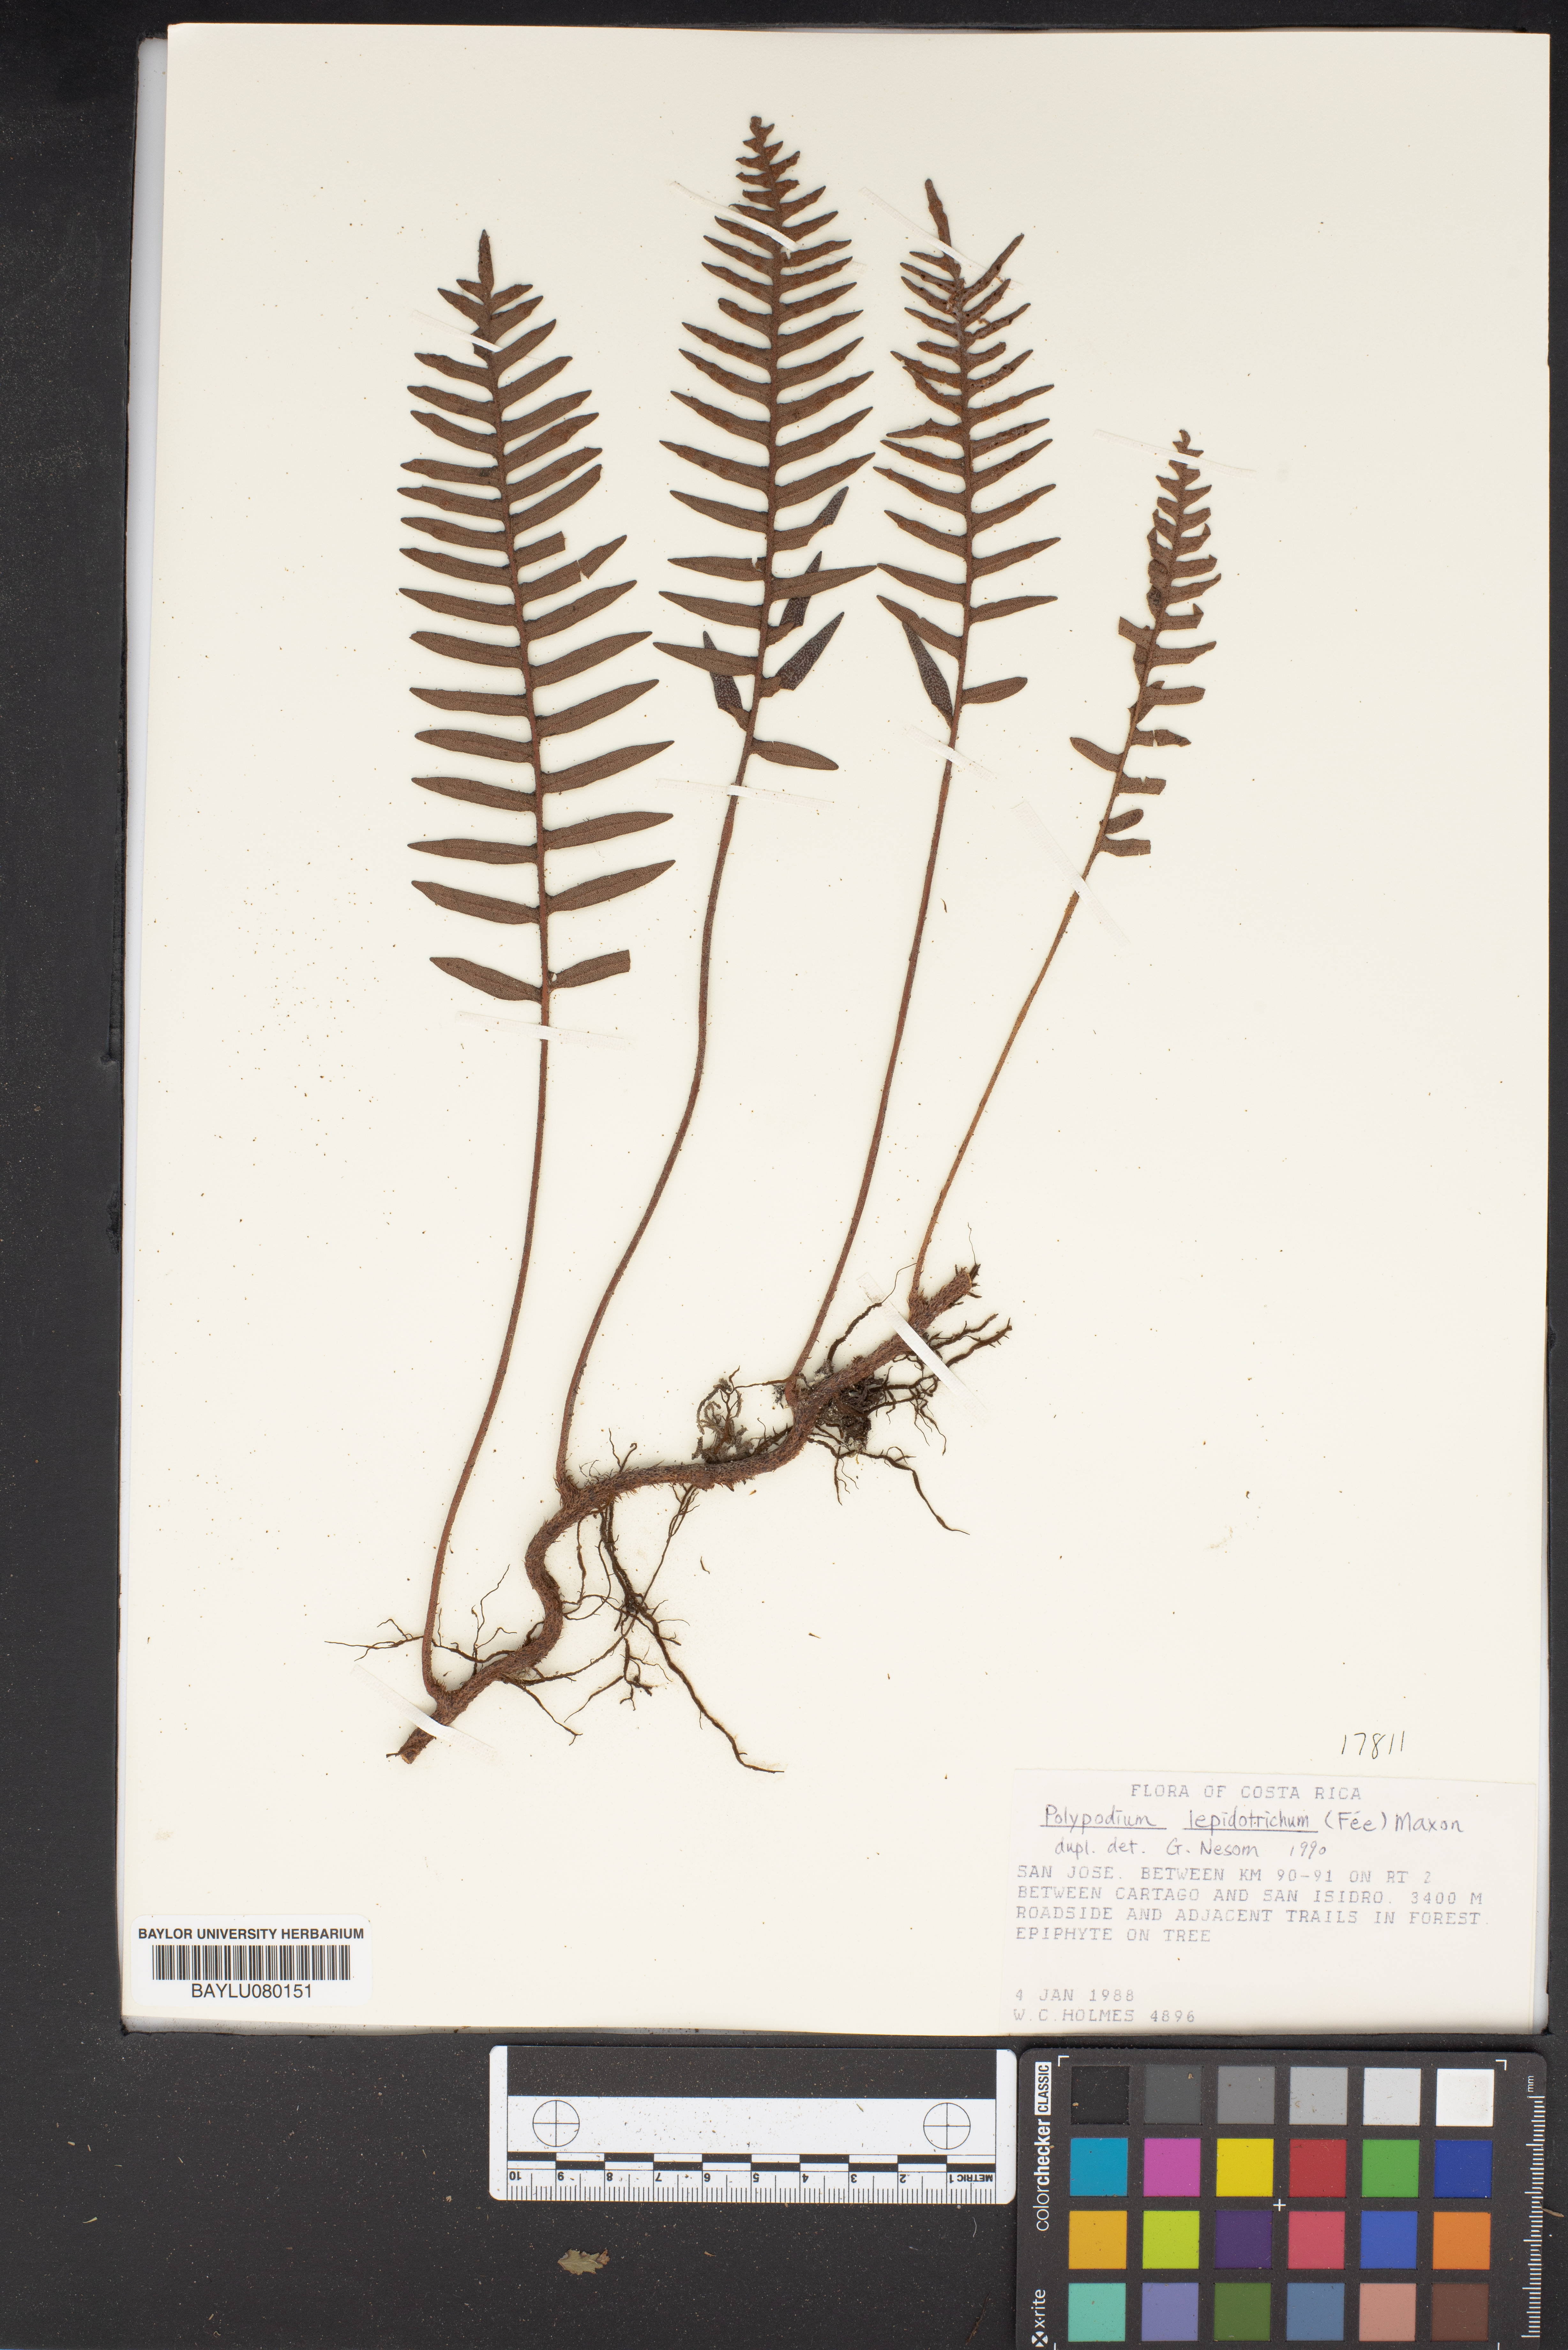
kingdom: Plantae
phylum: Tracheophyta
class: Polypodiopsida
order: Polypodiales
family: Polypodiaceae
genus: Pleopeltis
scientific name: Pleopeltis lepidotricha
